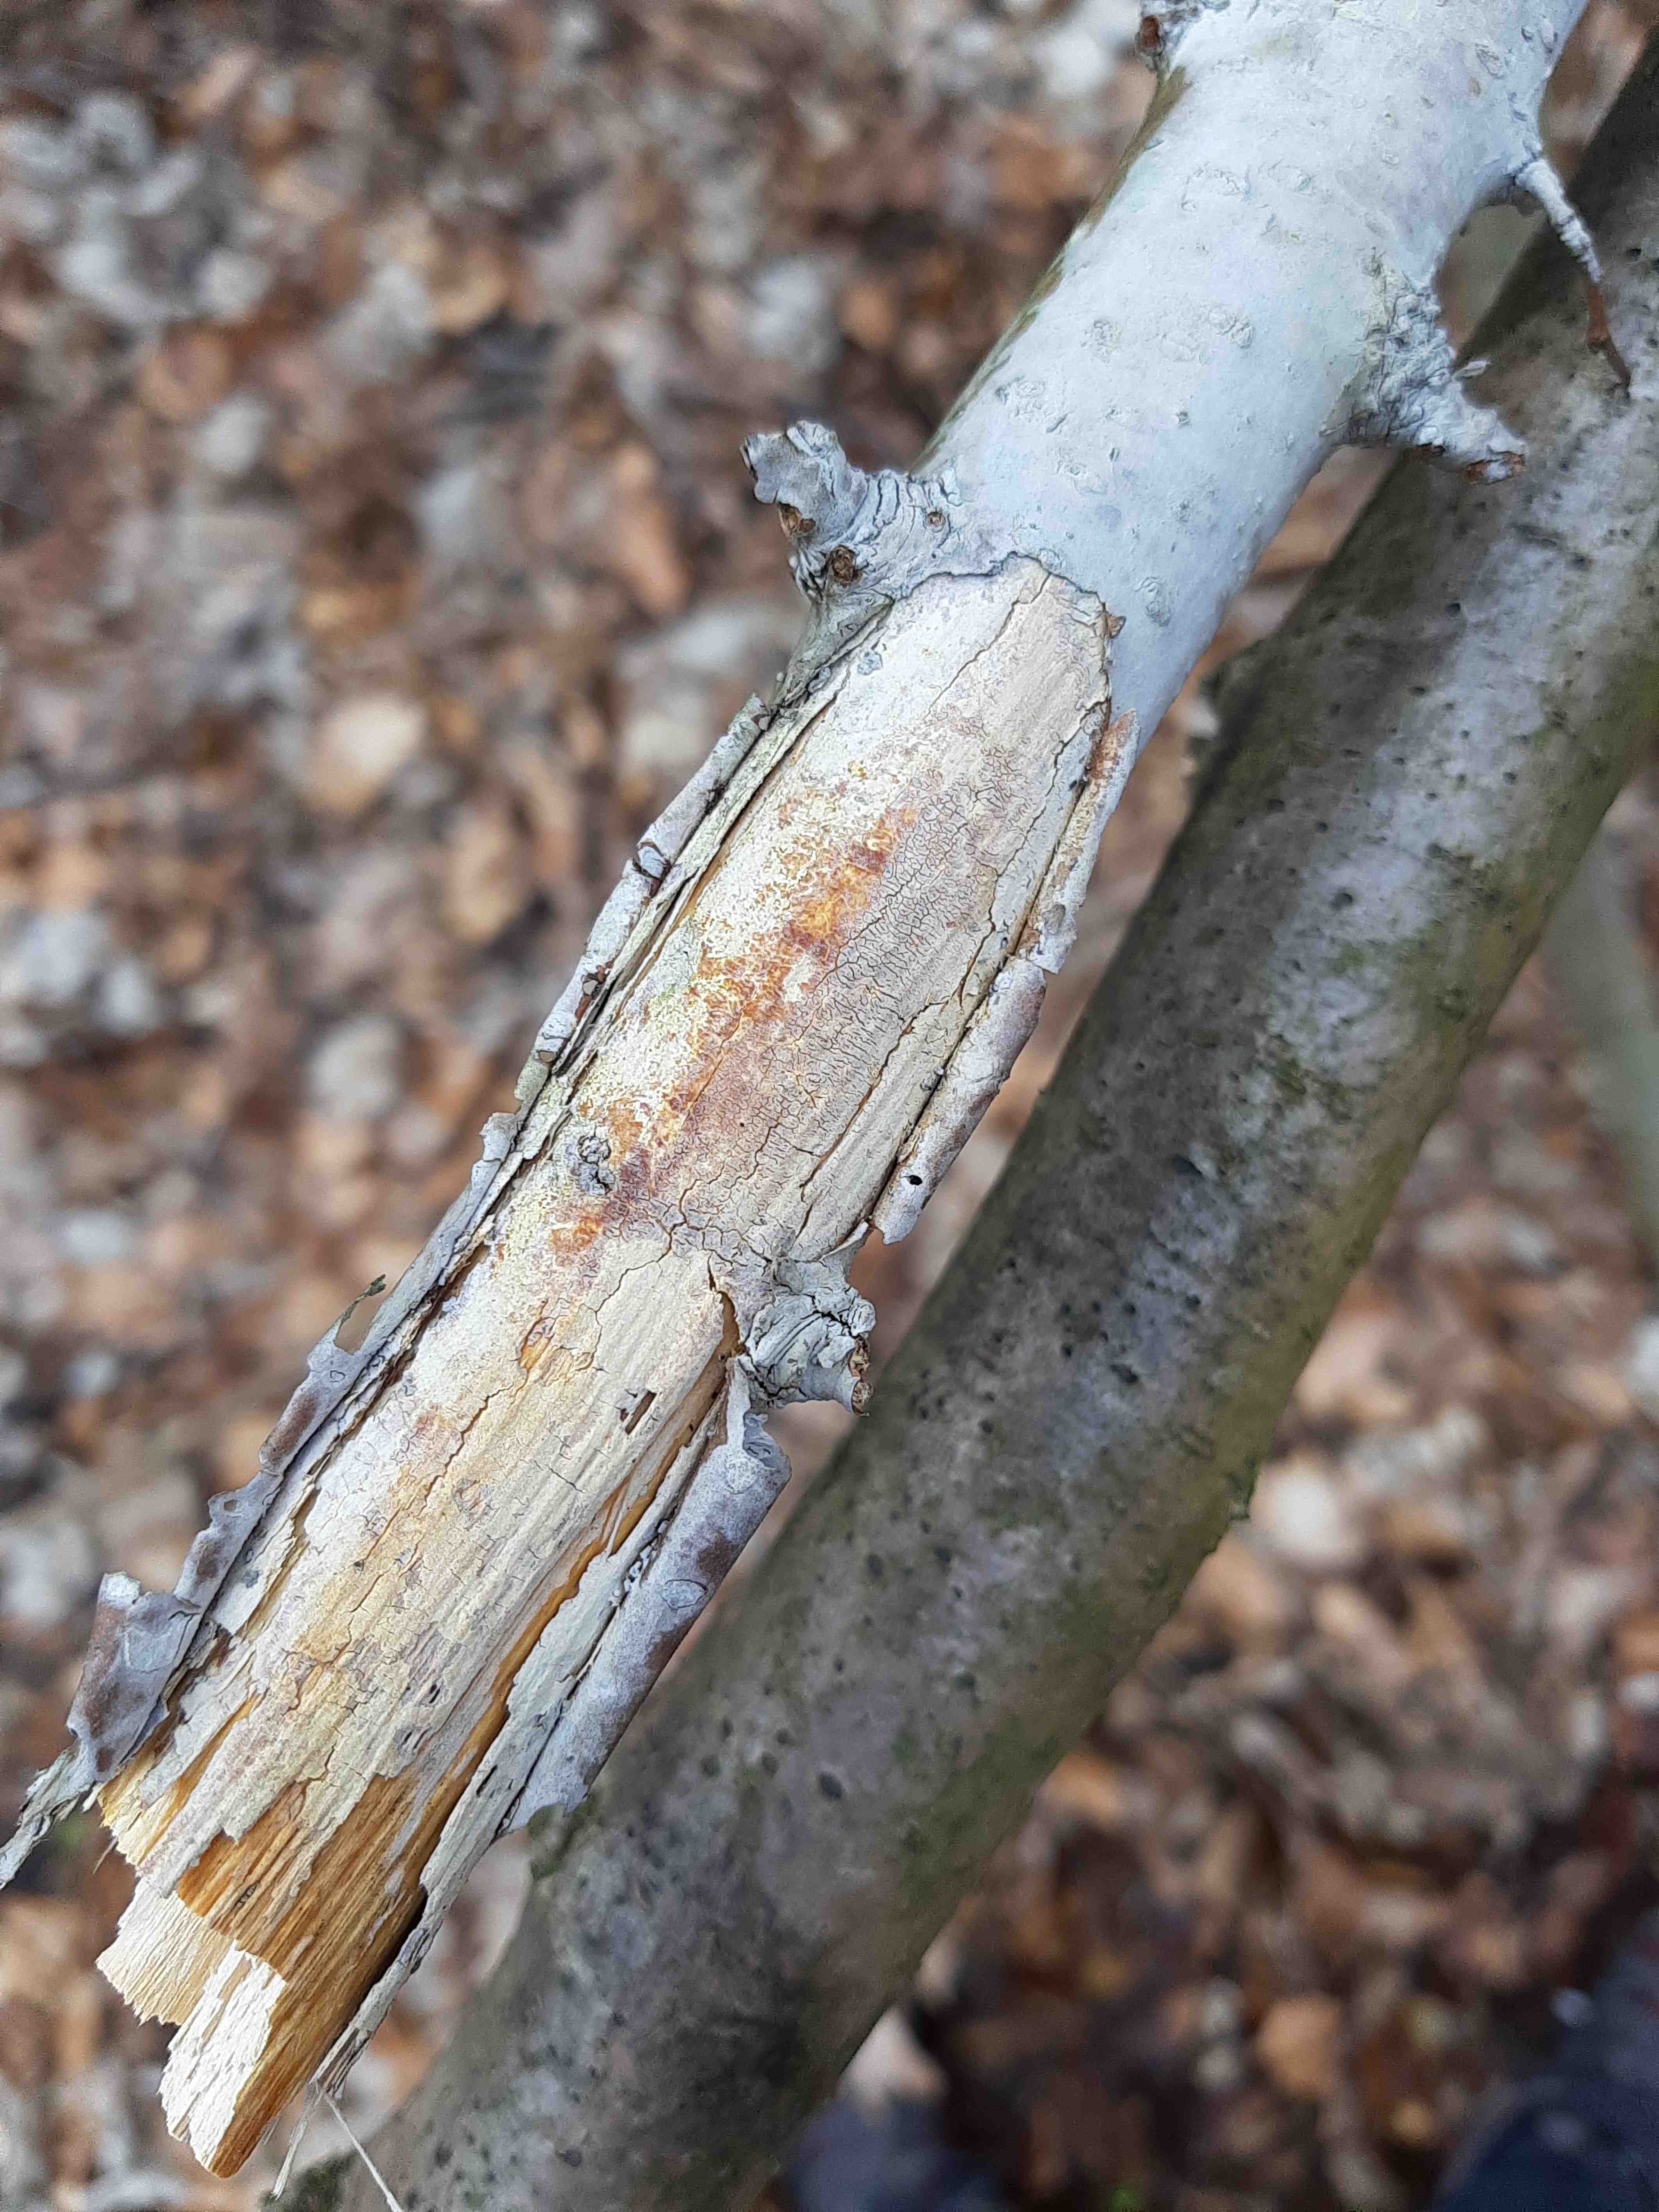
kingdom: Fungi
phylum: Basidiomycota
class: Agaricomycetes
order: Corticiales
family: Corticiaceae
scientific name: Corticiaceae
